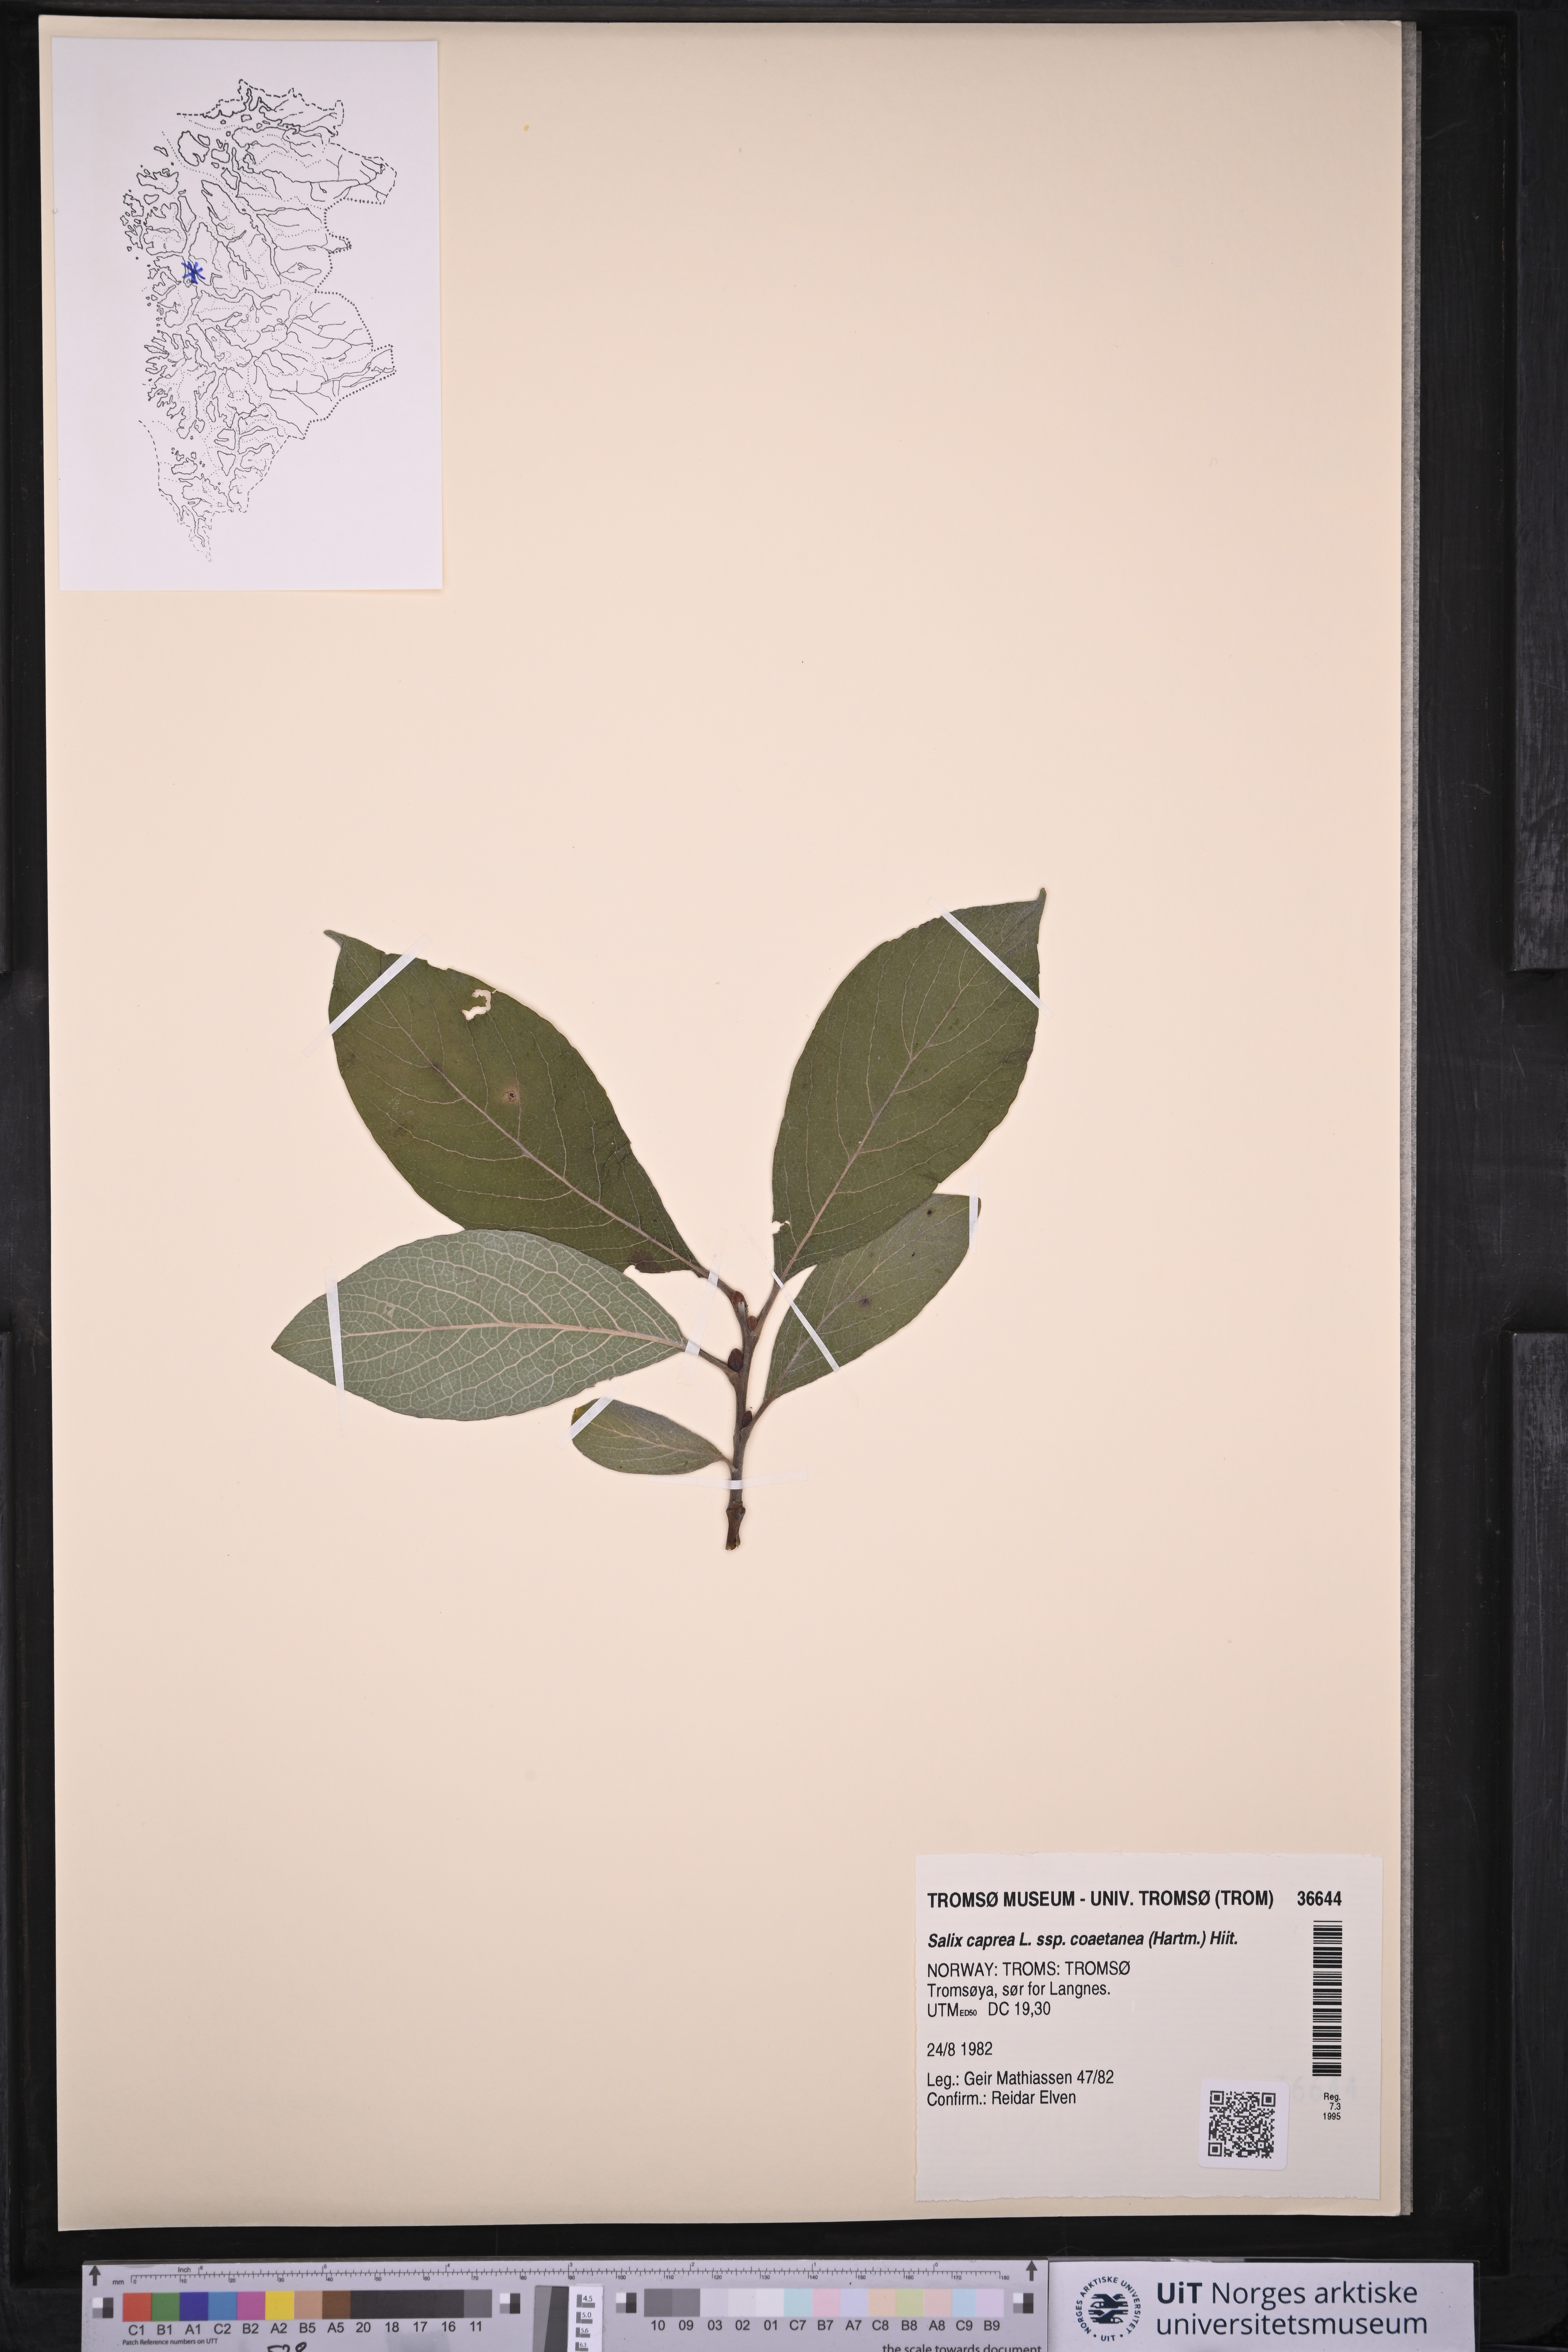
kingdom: Plantae
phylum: Tracheophyta
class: Magnoliopsida
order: Malpighiales
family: Salicaceae
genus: Salix
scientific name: Salix caprea
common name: Goat willow
